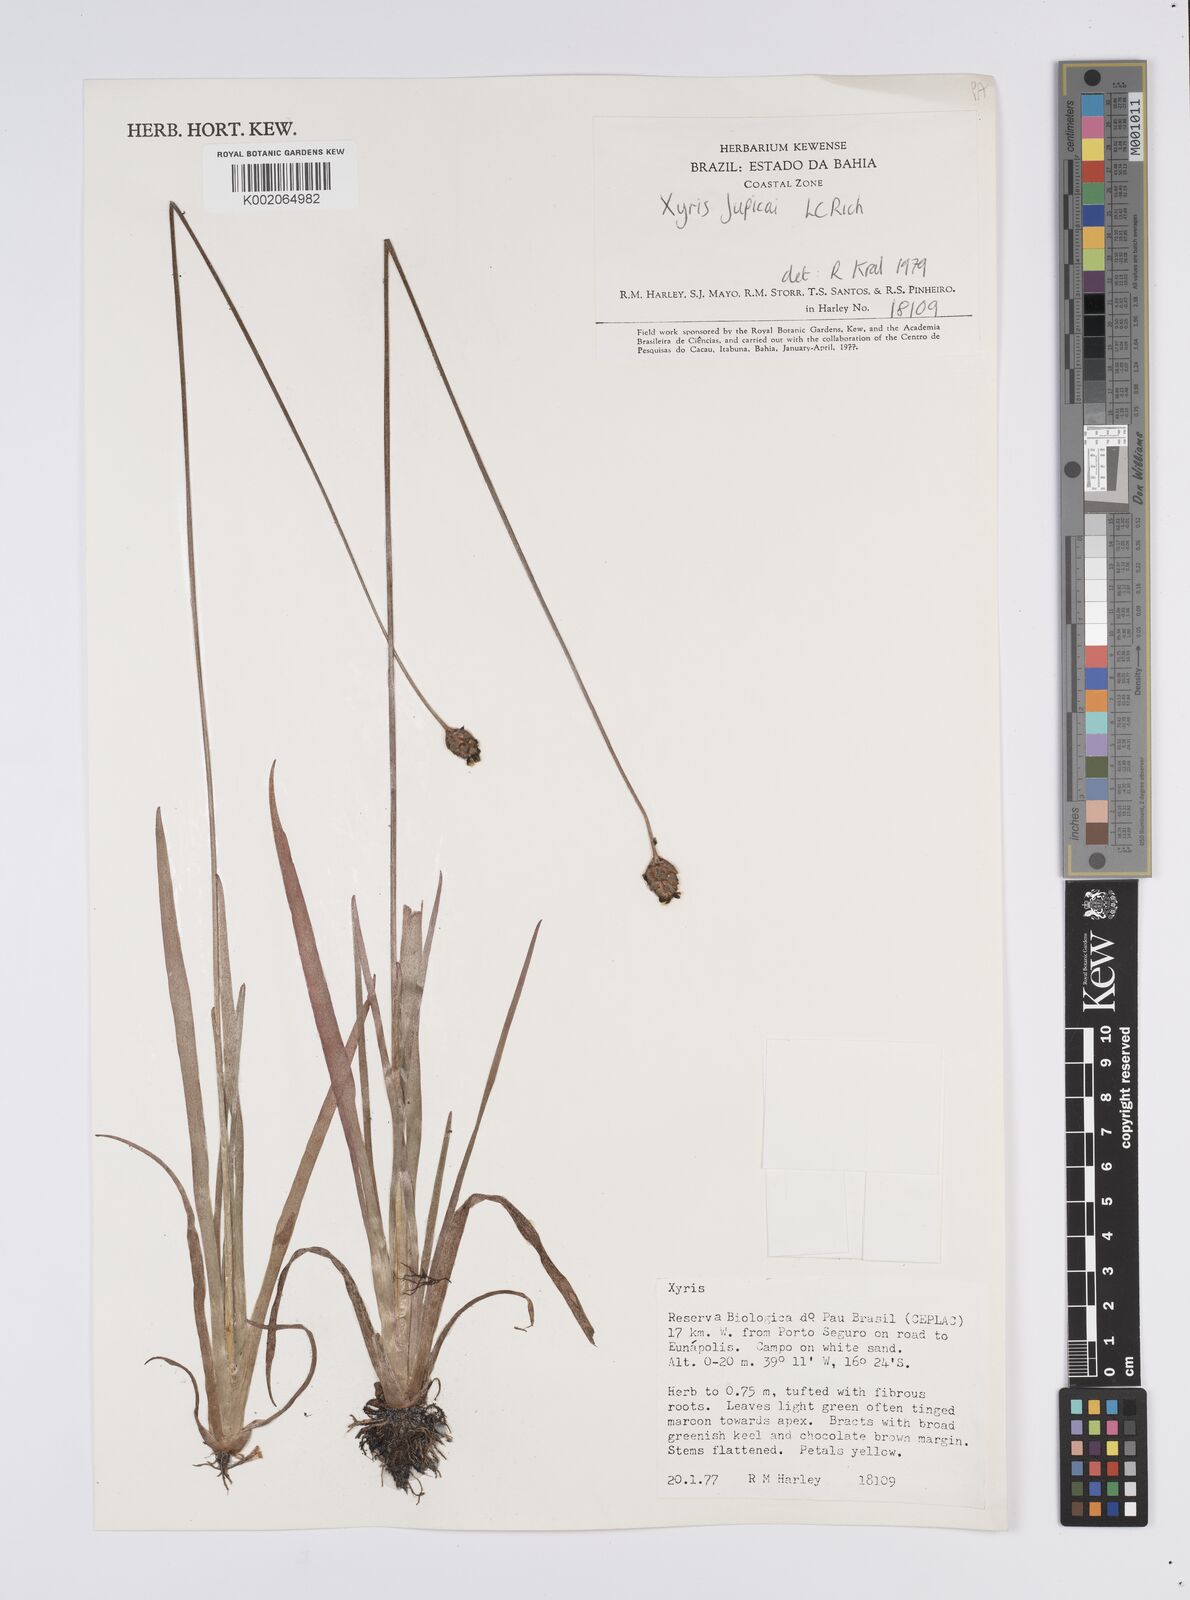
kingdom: Plantae
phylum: Tracheophyta
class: Liliopsida
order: Poales
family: Xyridaceae
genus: Xyris
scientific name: Xyris jupicai
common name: Richard's yelloweyed grass
